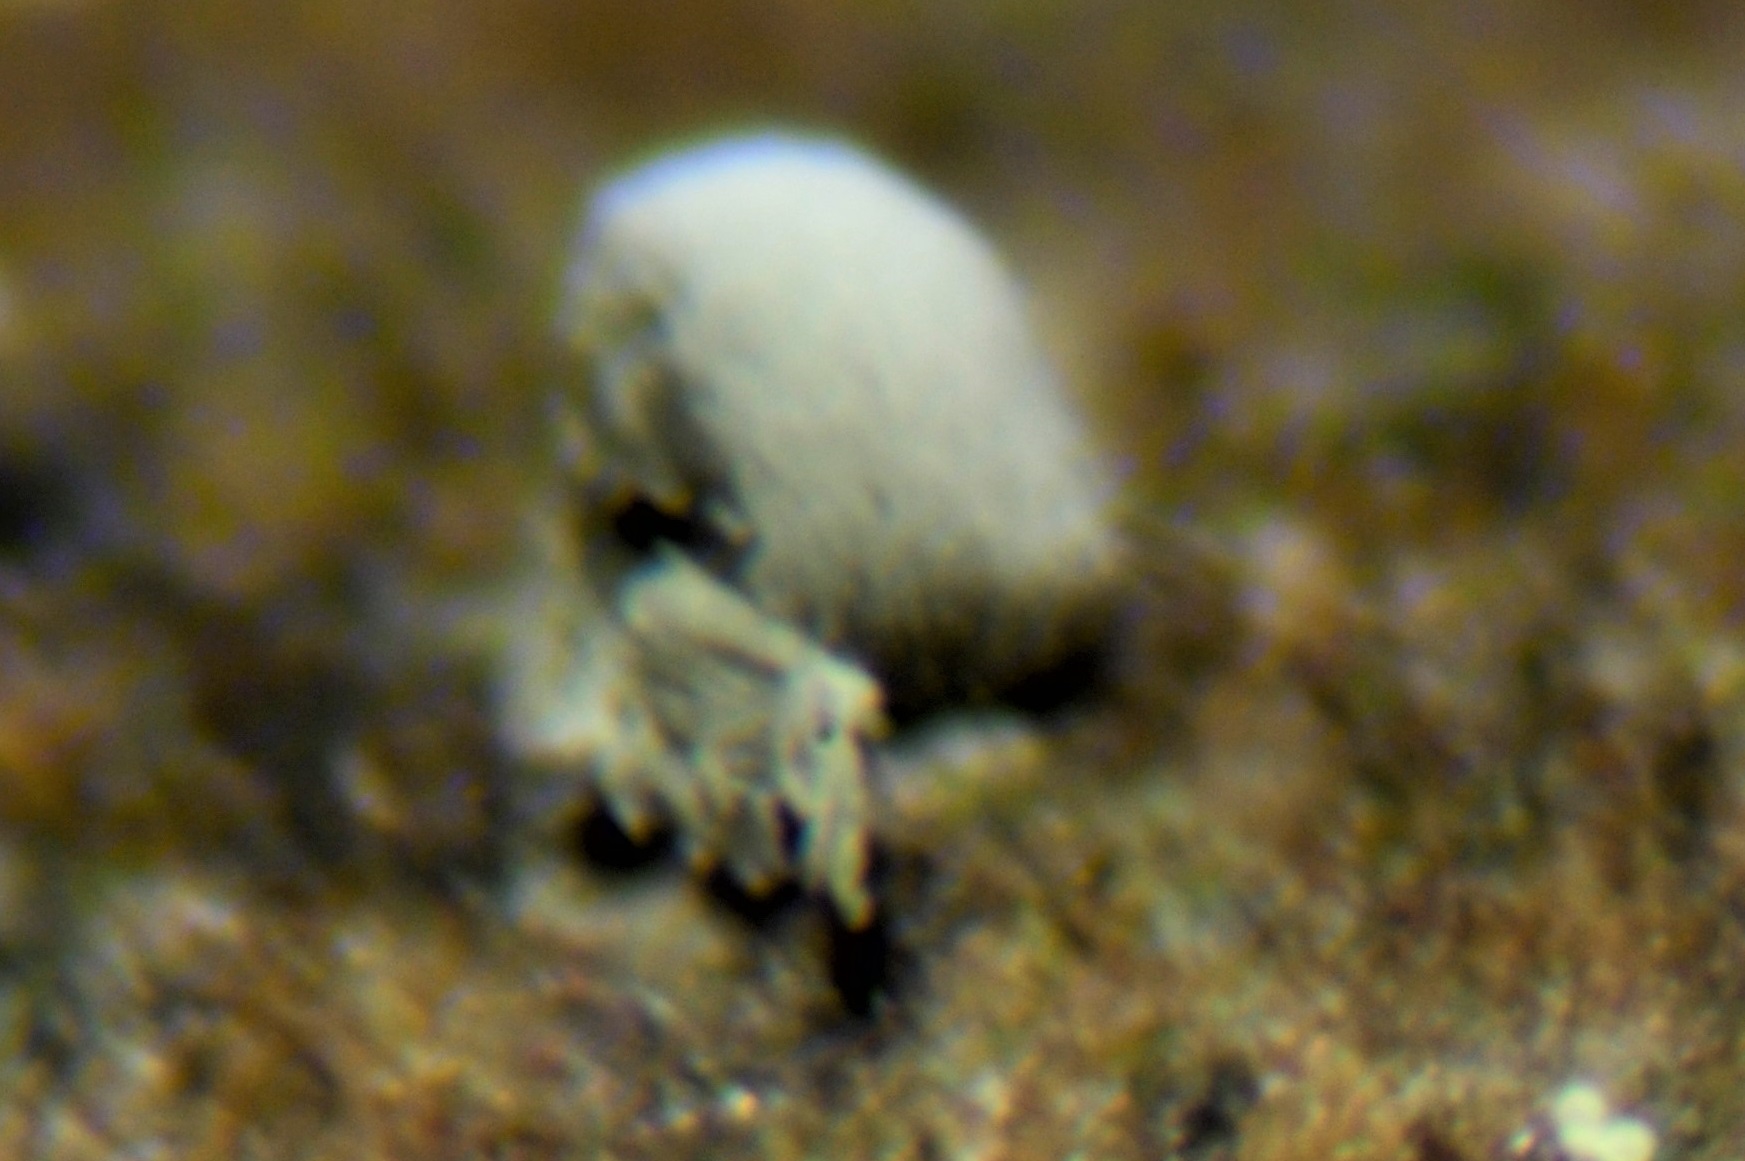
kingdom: Fungi
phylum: Ascomycota
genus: Septotrullula
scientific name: Septotrullula bacilligera
